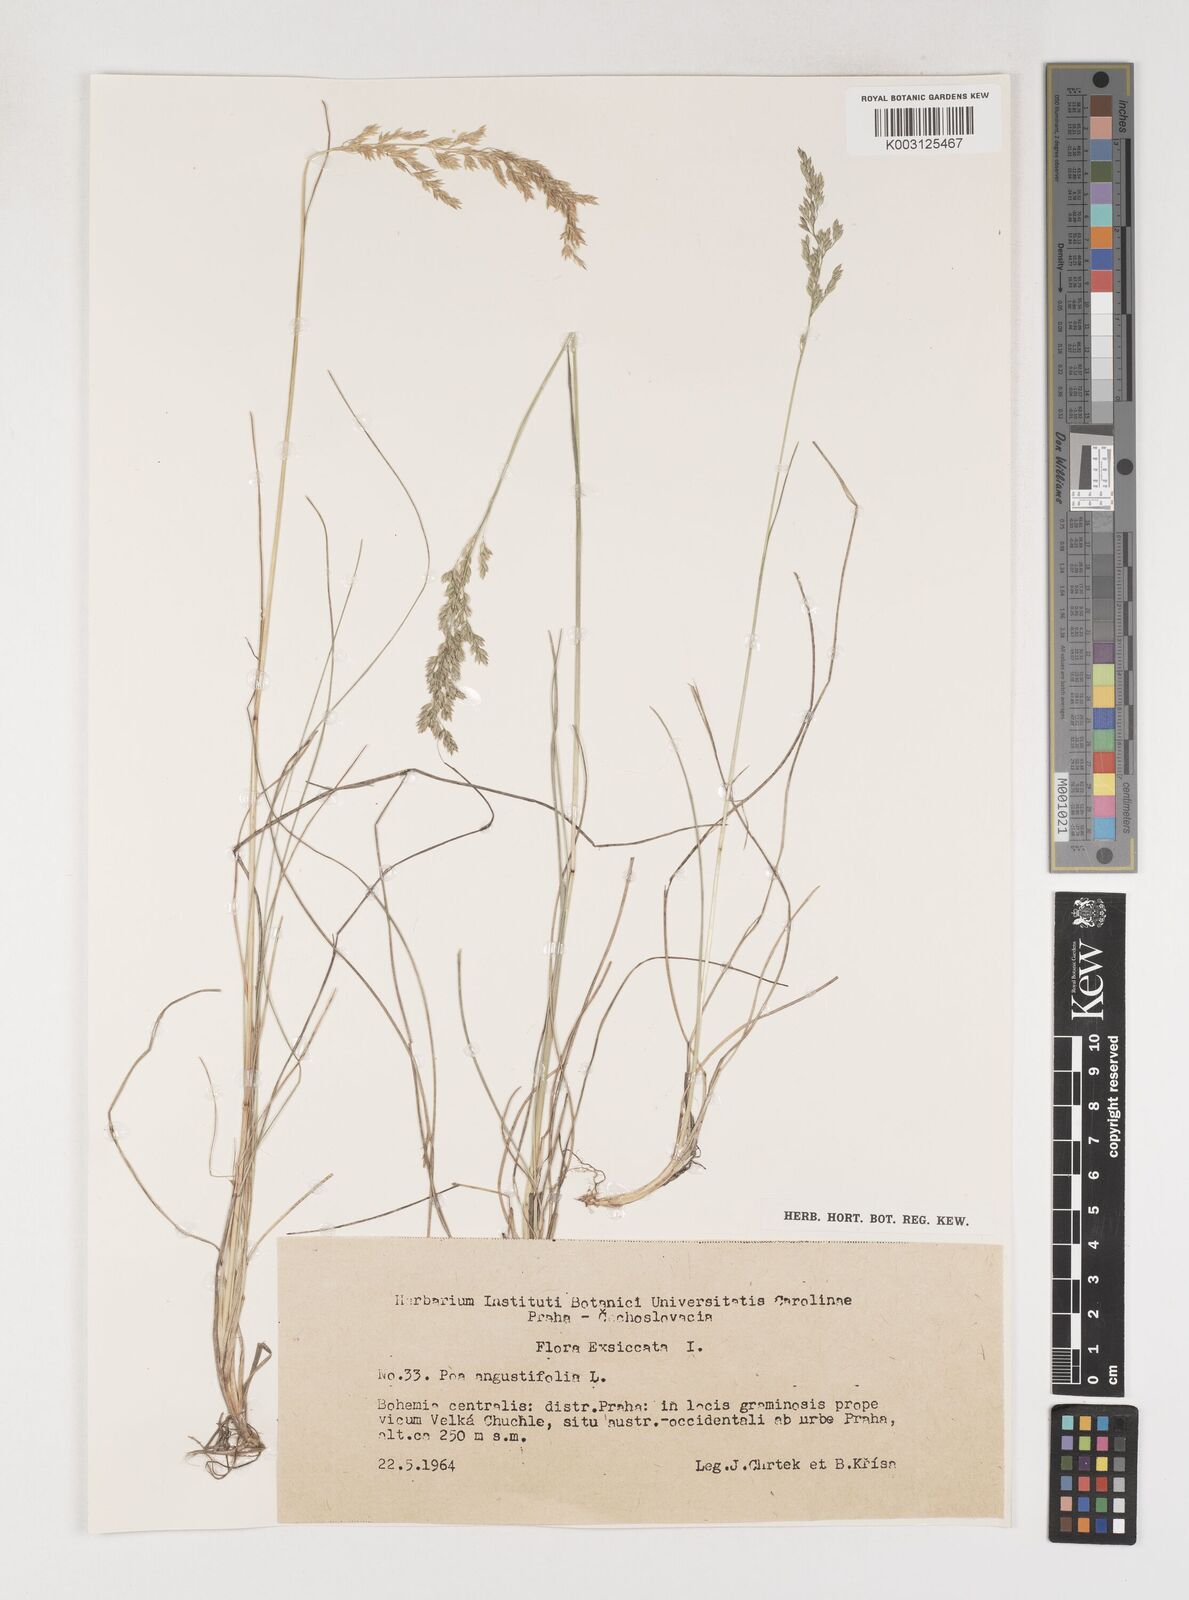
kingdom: Plantae
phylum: Tracheophyta
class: Liliopsida
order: Poales
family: Poaceae
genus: Poa
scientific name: Poa angustifolia
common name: Narrow-leaved meadow-grass
